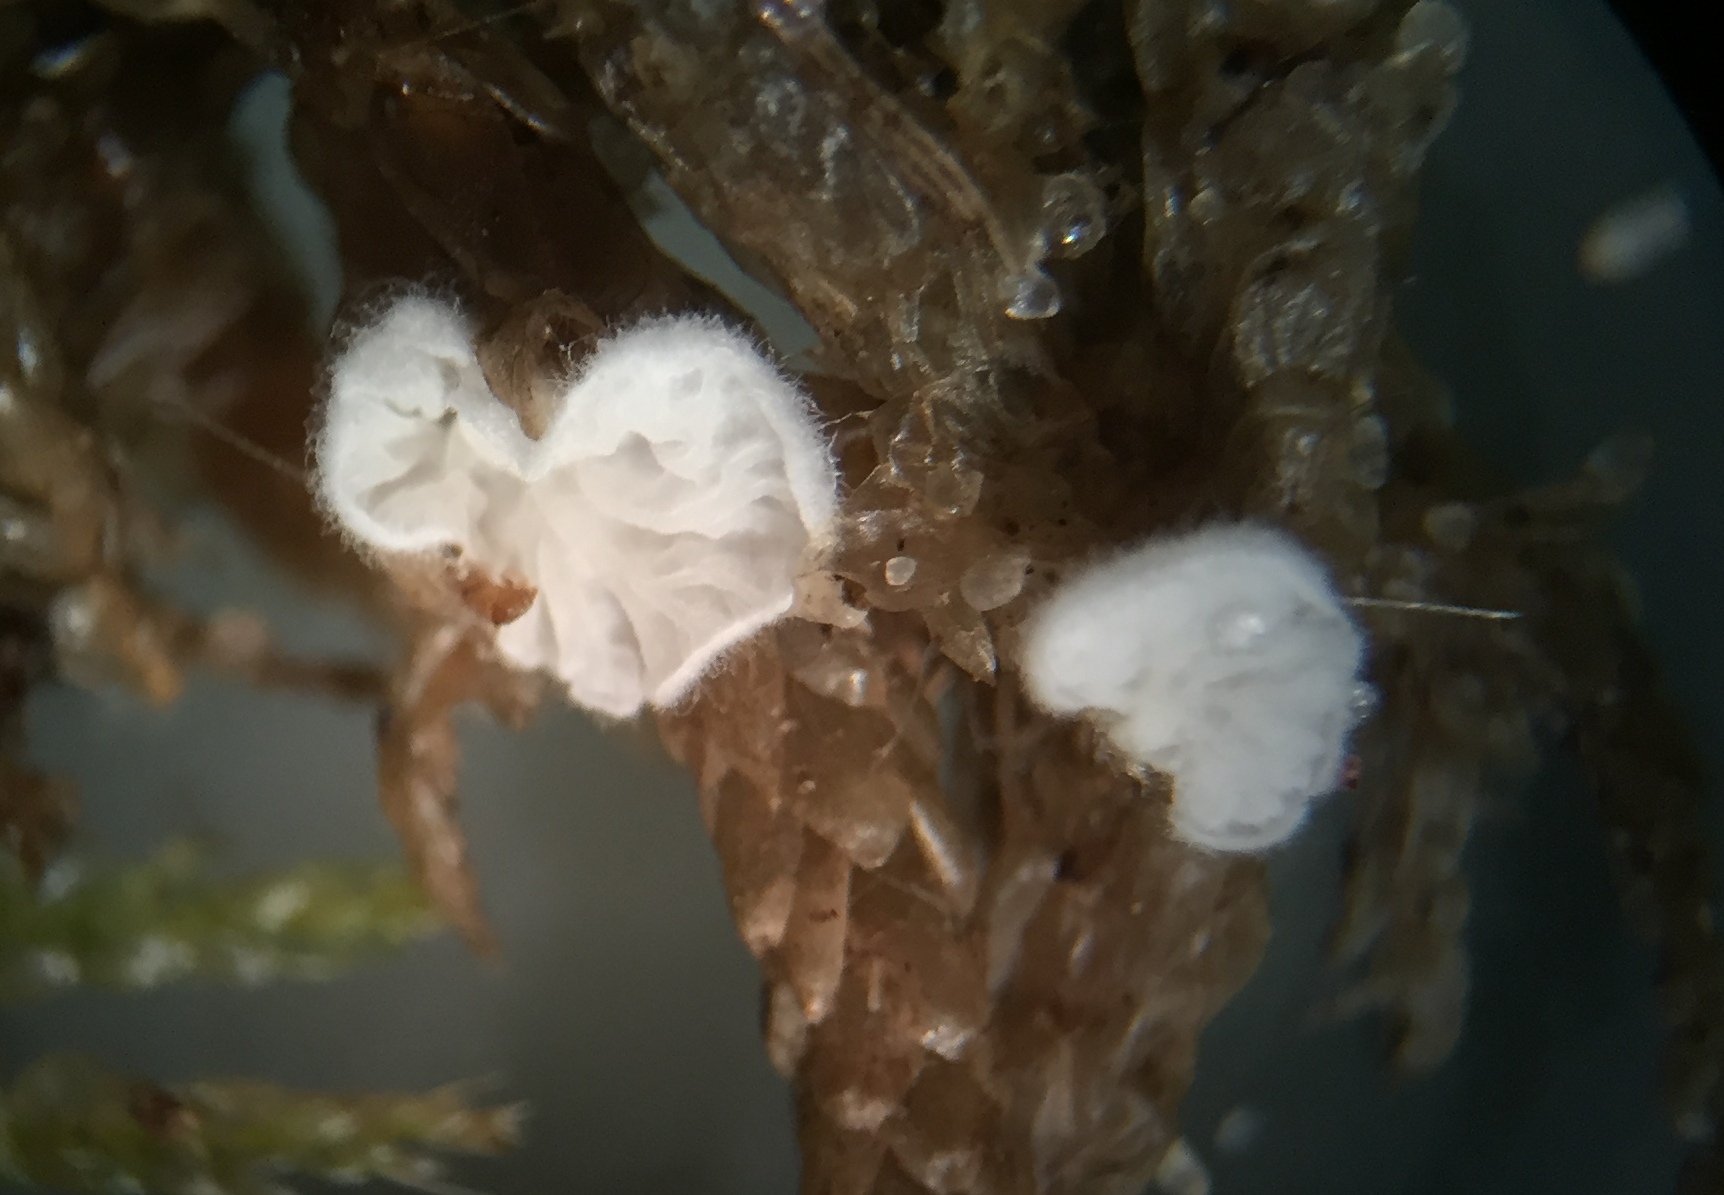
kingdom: Fungi
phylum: Basidiomycota
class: Agaricomycetes
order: Agaricales
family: Entolomataceae
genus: Clitopilus
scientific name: Clitopilus hobsonii
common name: Miller's oysterling
